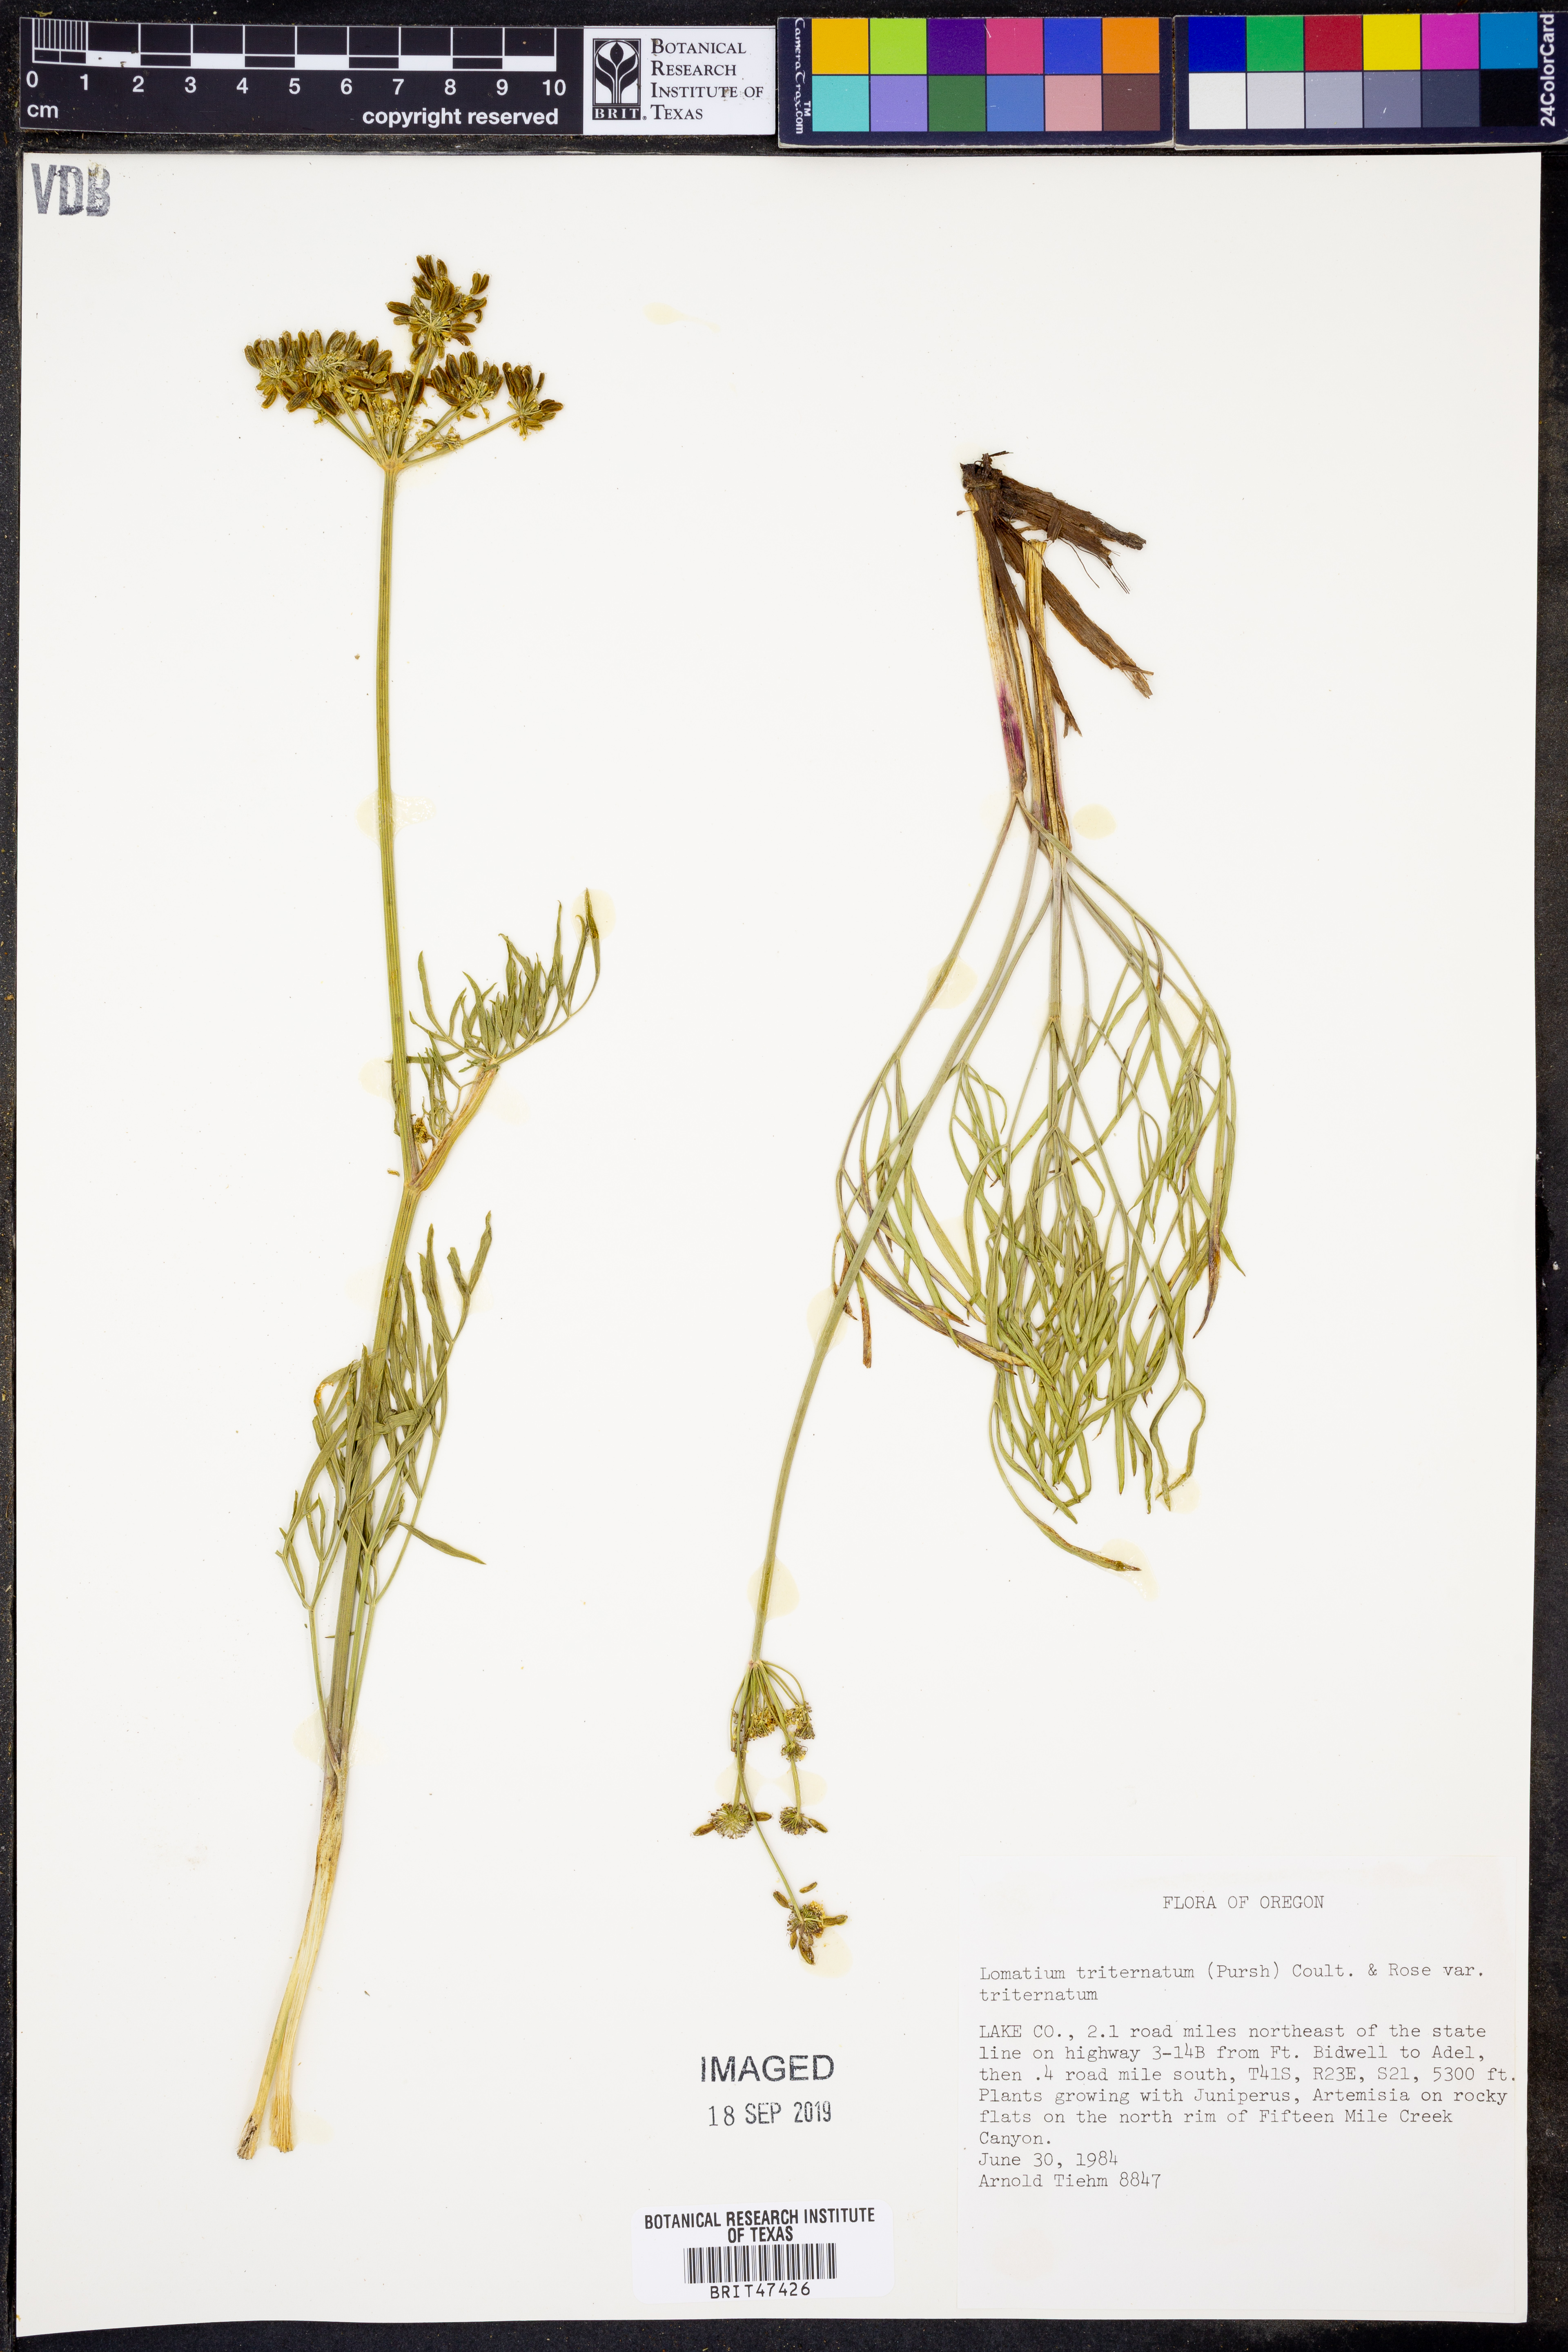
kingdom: Plantae
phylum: Tracheophyta
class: Magnoliopsida
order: Apiales
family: Apiaceae
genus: Lomatium
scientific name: Lomatium triternatum
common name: Ternate lomatium
